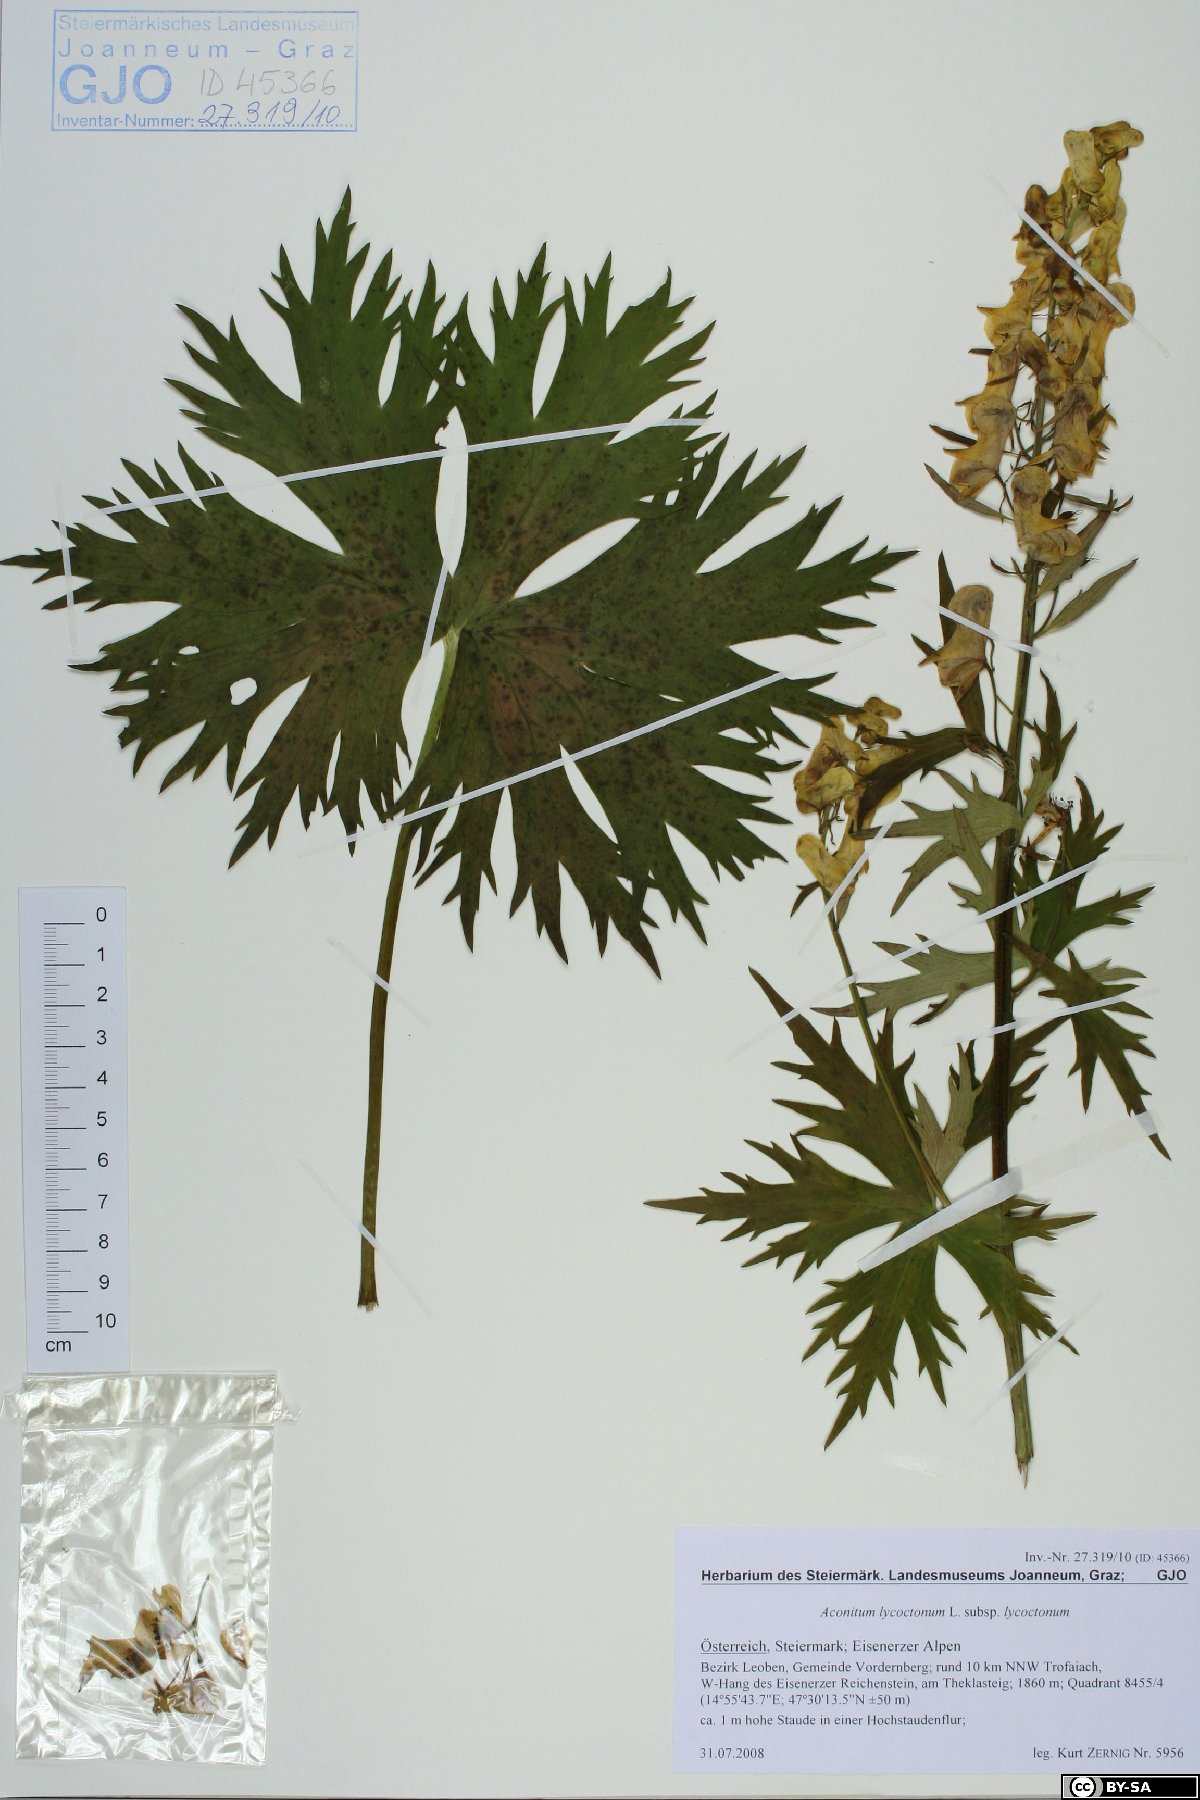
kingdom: Plantae
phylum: Tracheophyta
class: Magnoliopsida
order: Ranunculales
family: Ranunculaceae
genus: Aconitum
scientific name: Aconitum lycoctonum
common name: Wolf's-bane
